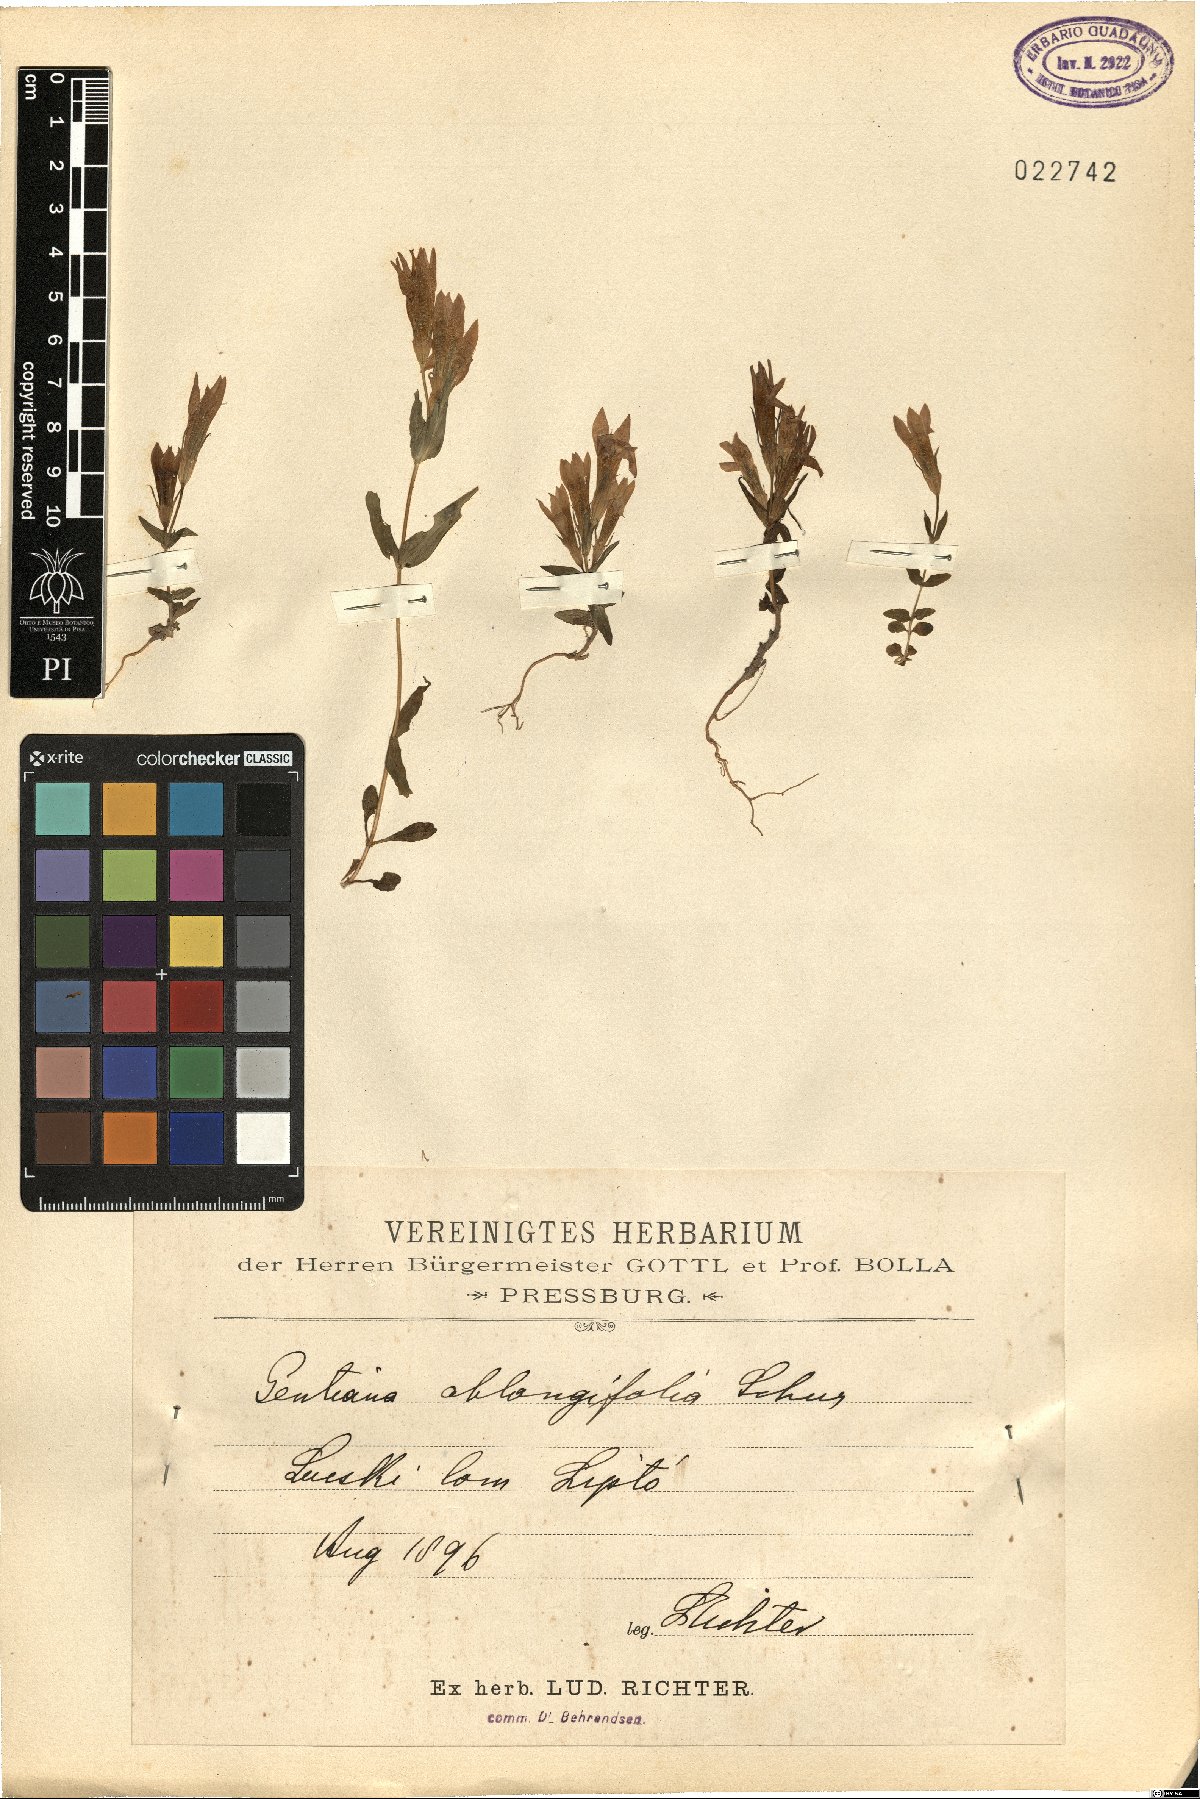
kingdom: Plantae
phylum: Tracheophyta
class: Magnoliopsida
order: Gentianales
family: Gentianaceae
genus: Gentiana
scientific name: Gentiana
